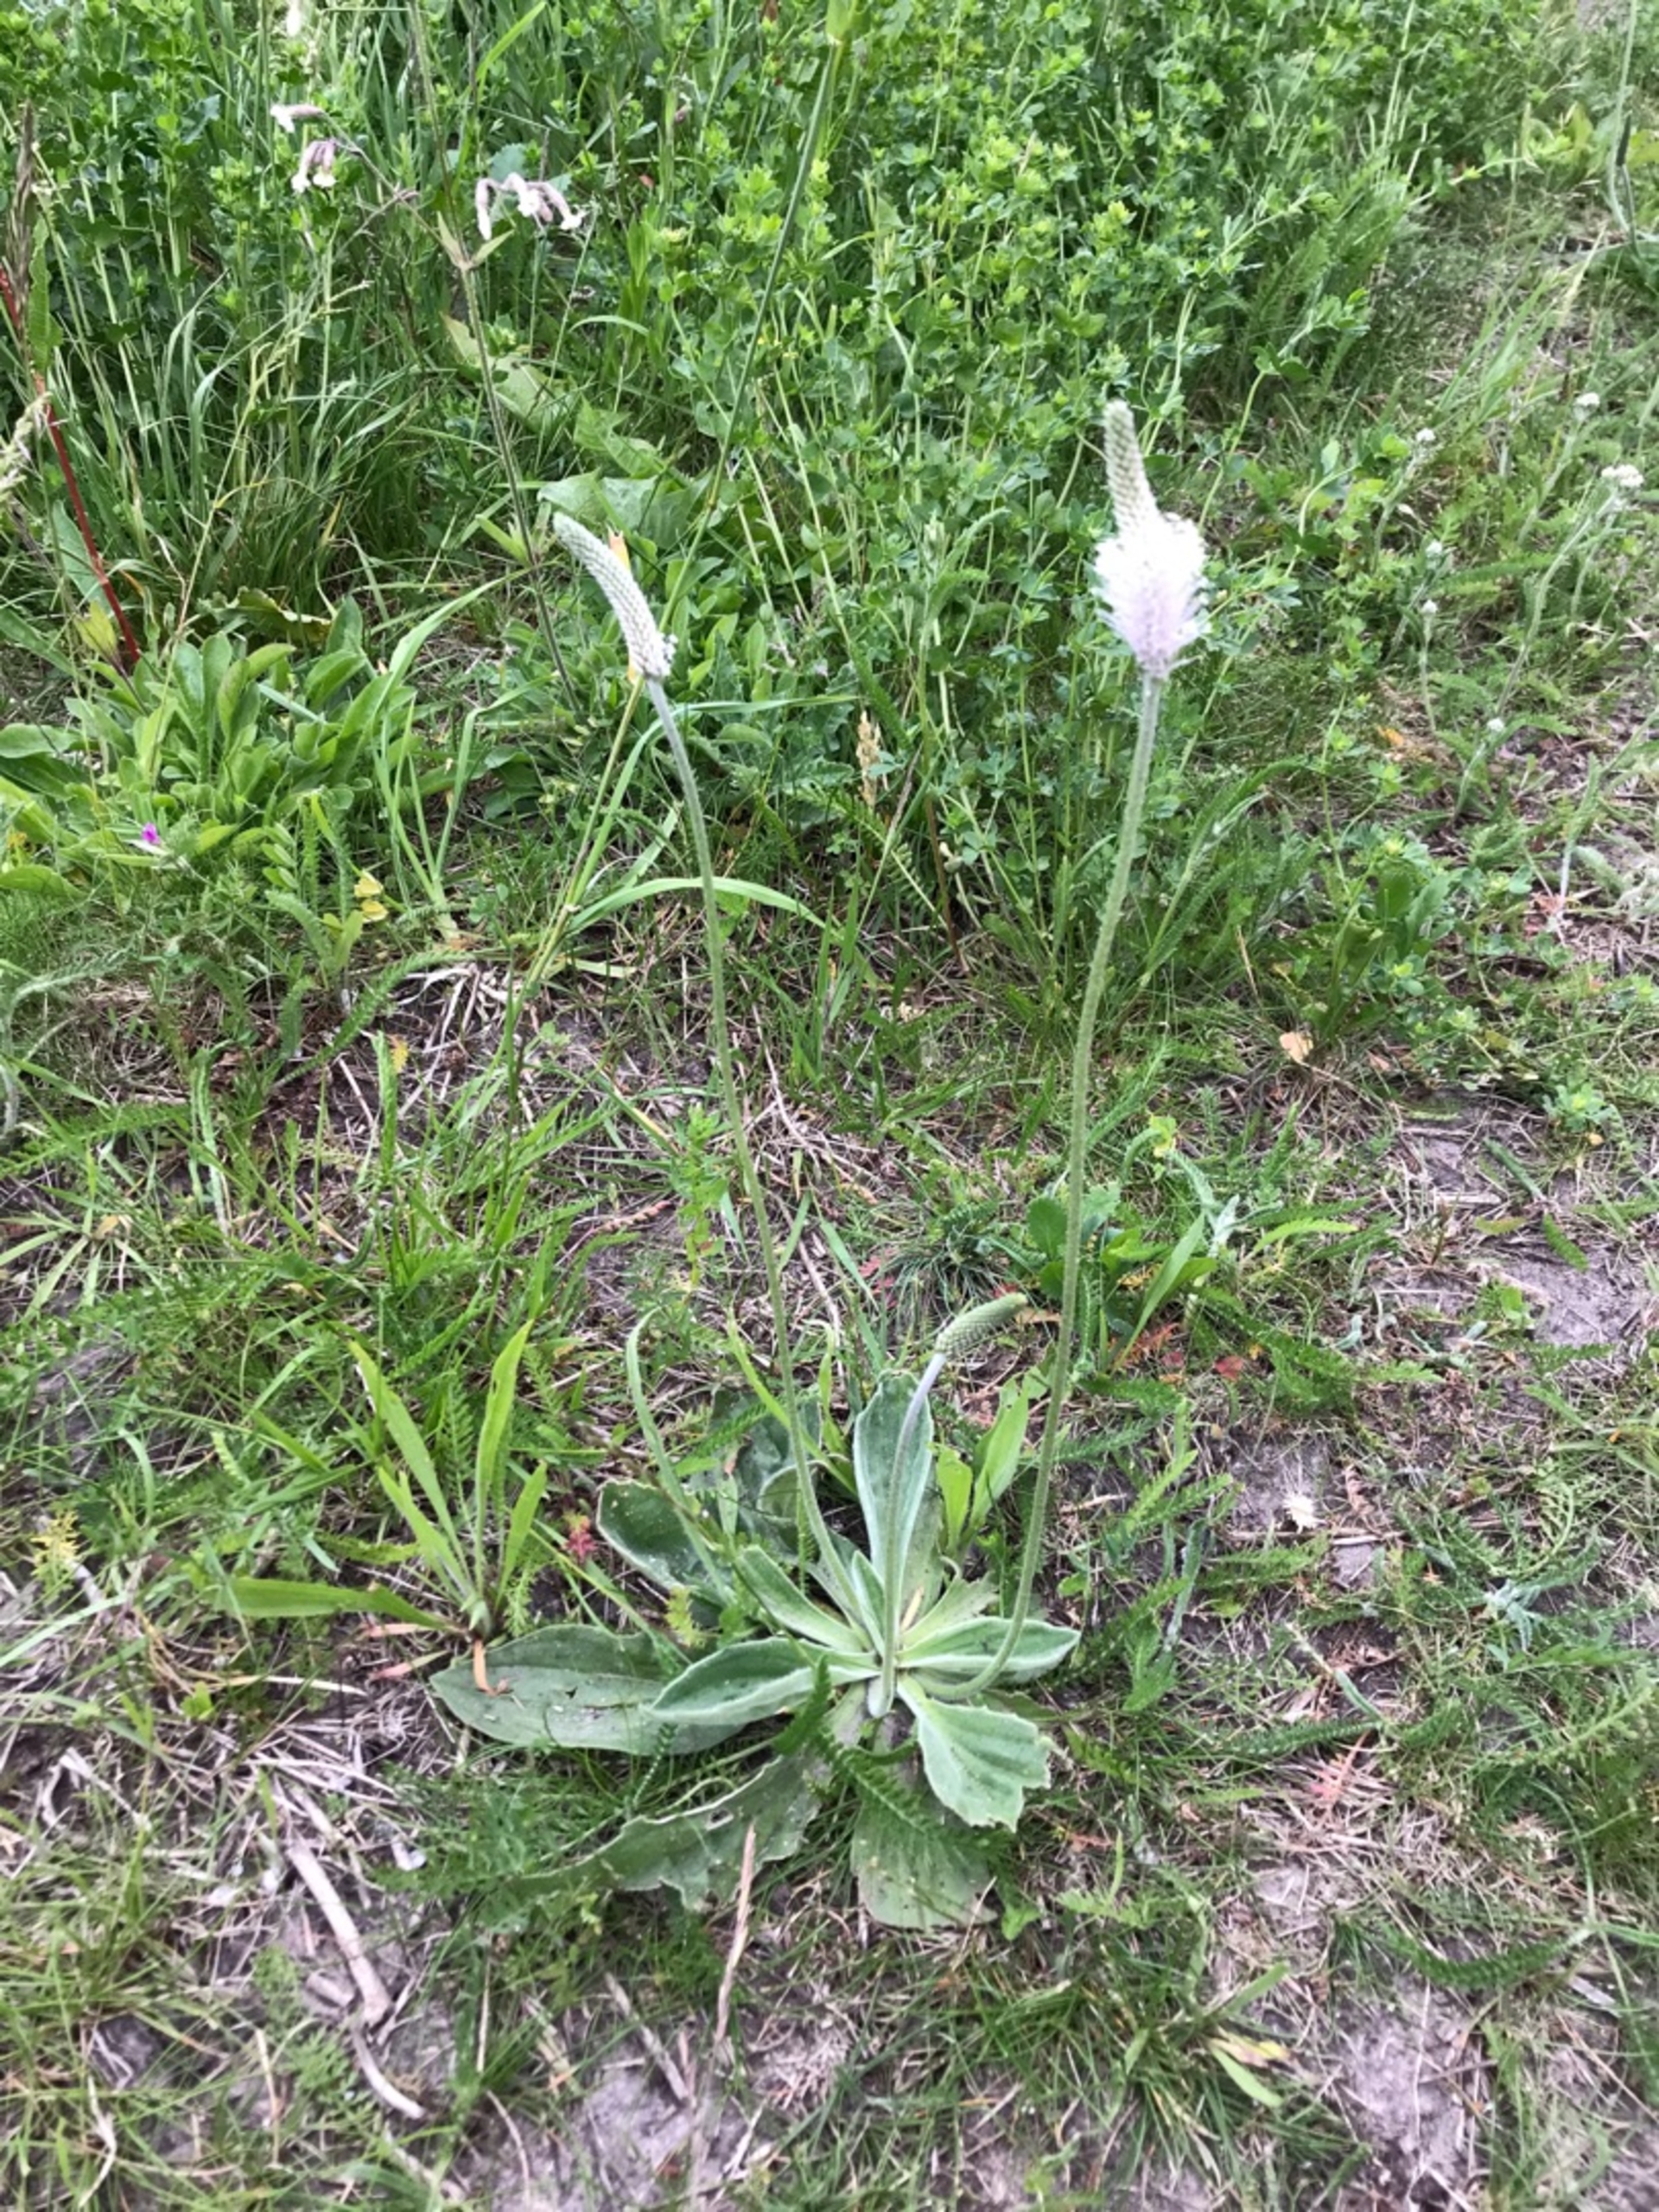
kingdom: Plantae
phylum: Tracheophyta
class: Magnoliopsida
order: Lamiales
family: Plantaginaceae
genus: Plantago
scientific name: Plantago media
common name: Dunet vejbred
